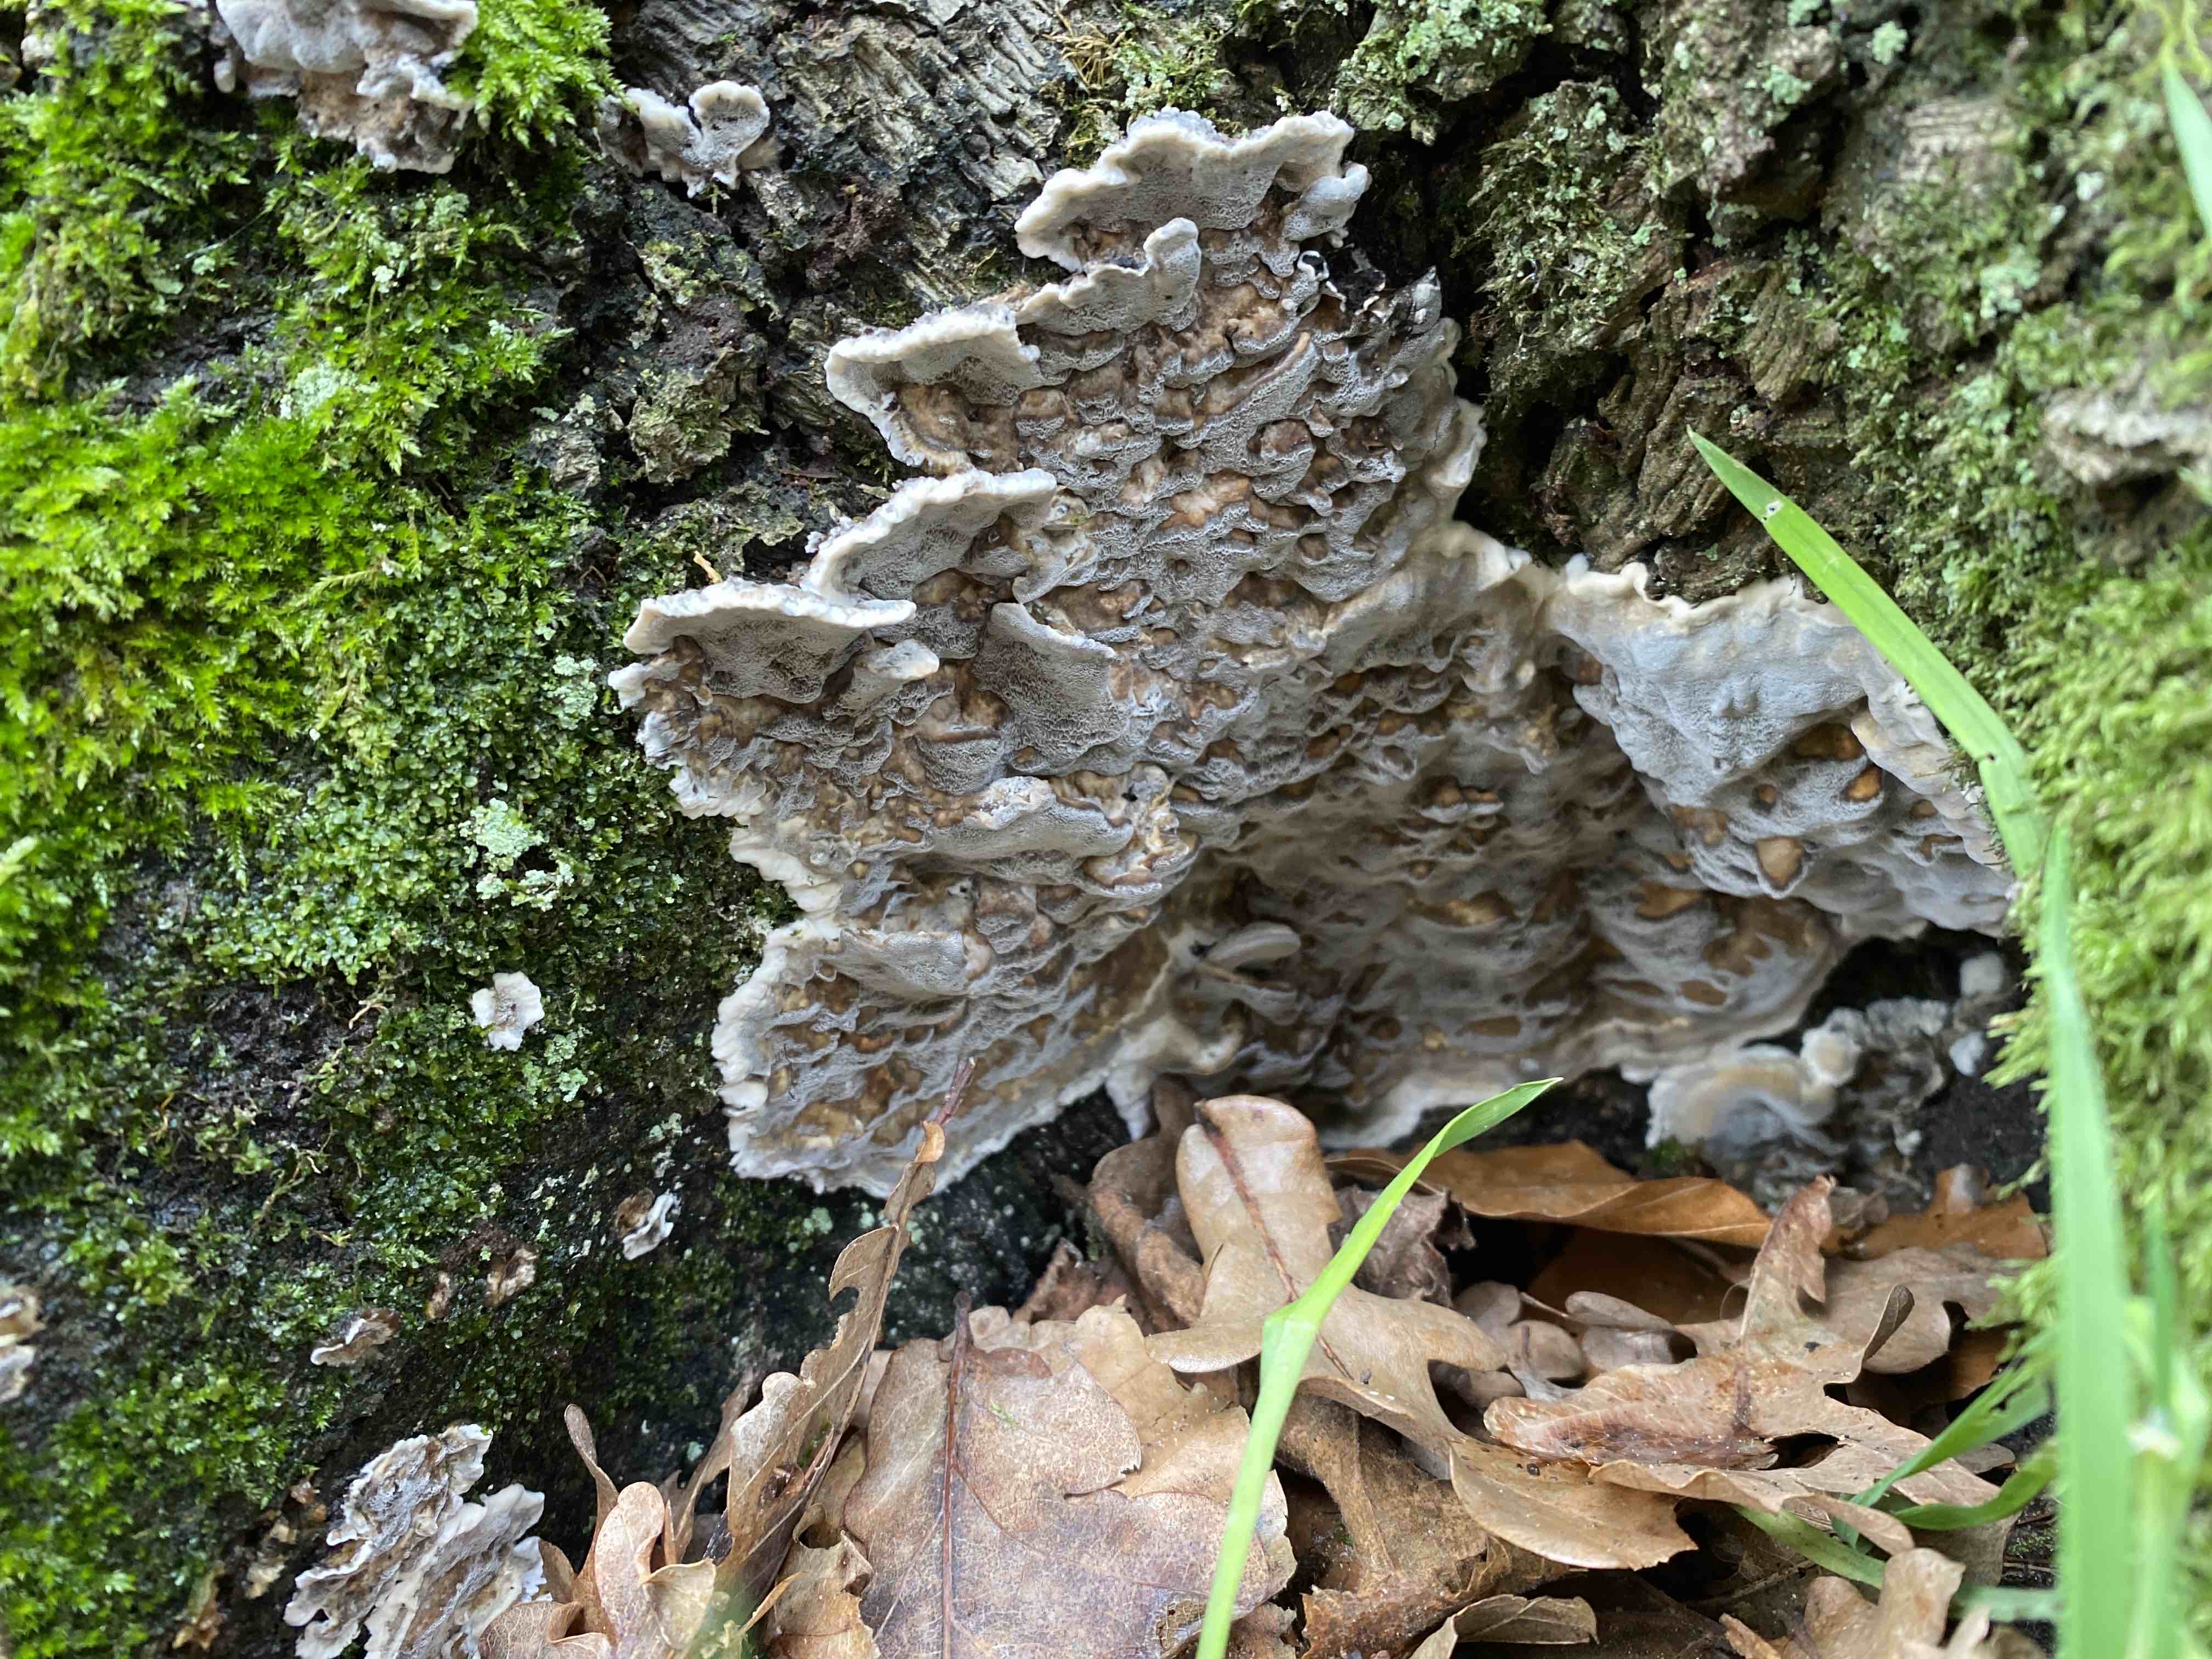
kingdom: Fungi
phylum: Basidiomycota
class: Agaricomycetes
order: Polyporales
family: Phanerochaetaceae
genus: Bjerkandera
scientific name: Bjerkandera adusta
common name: sveden sodporesvamp
